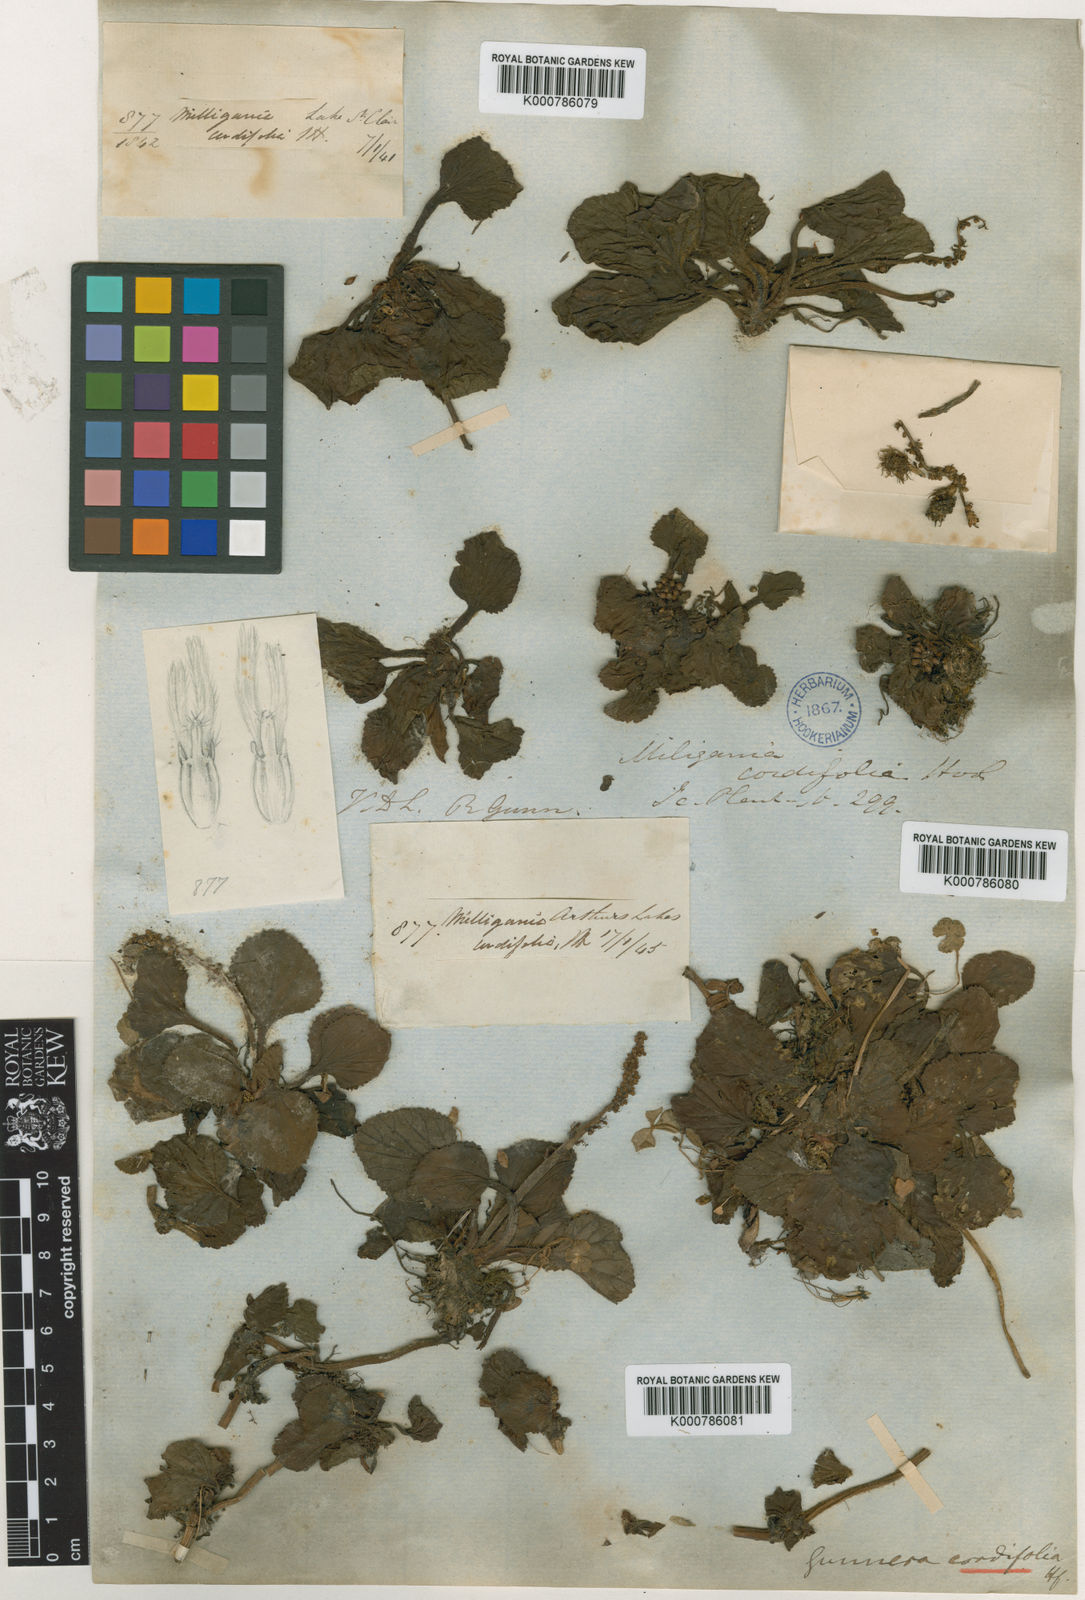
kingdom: Plantae
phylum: Tracheophyta
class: Magnoliopsida
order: Gunnerales
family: Gunneraceae
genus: Gunnera
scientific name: Gunnera cordifolia
